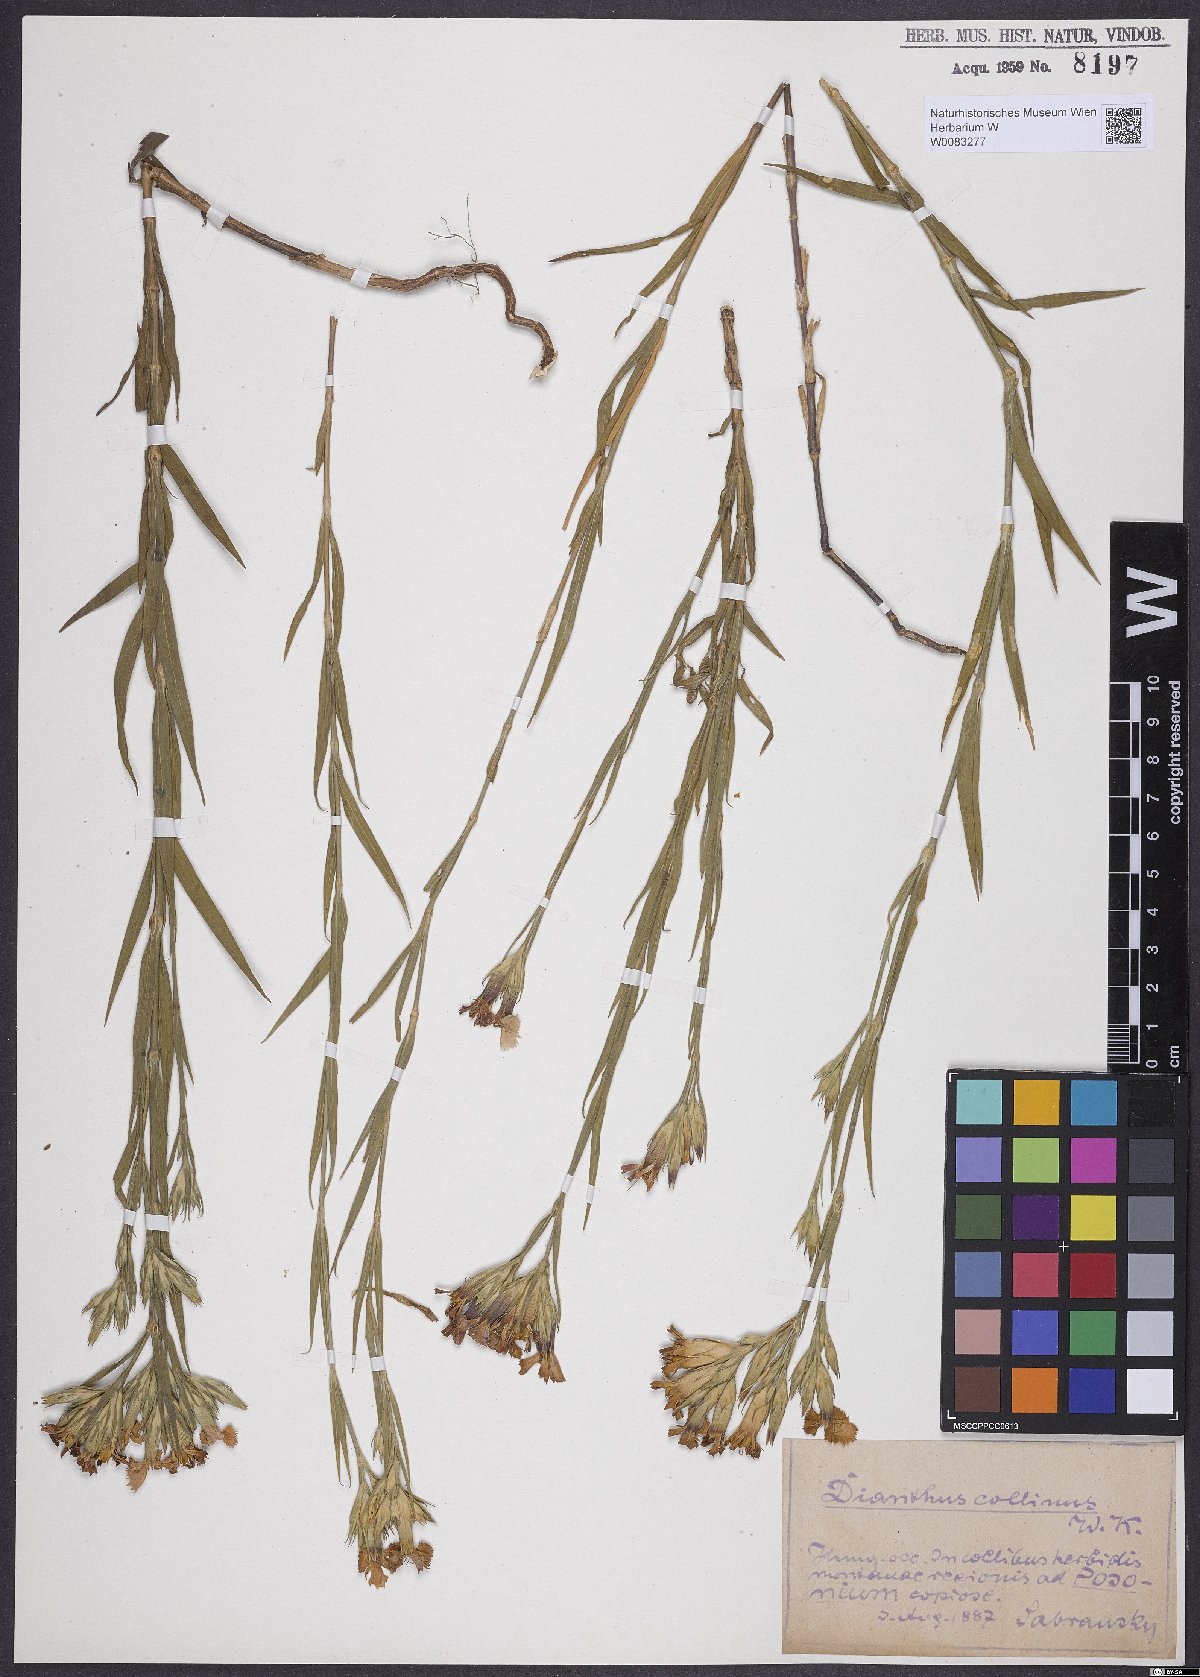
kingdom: Plantae
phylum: Tracheophyta
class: Magnoliopsida
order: Caryophyllales
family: Caryophyllaceae
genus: Dianthus
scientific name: Dianthus collinus
